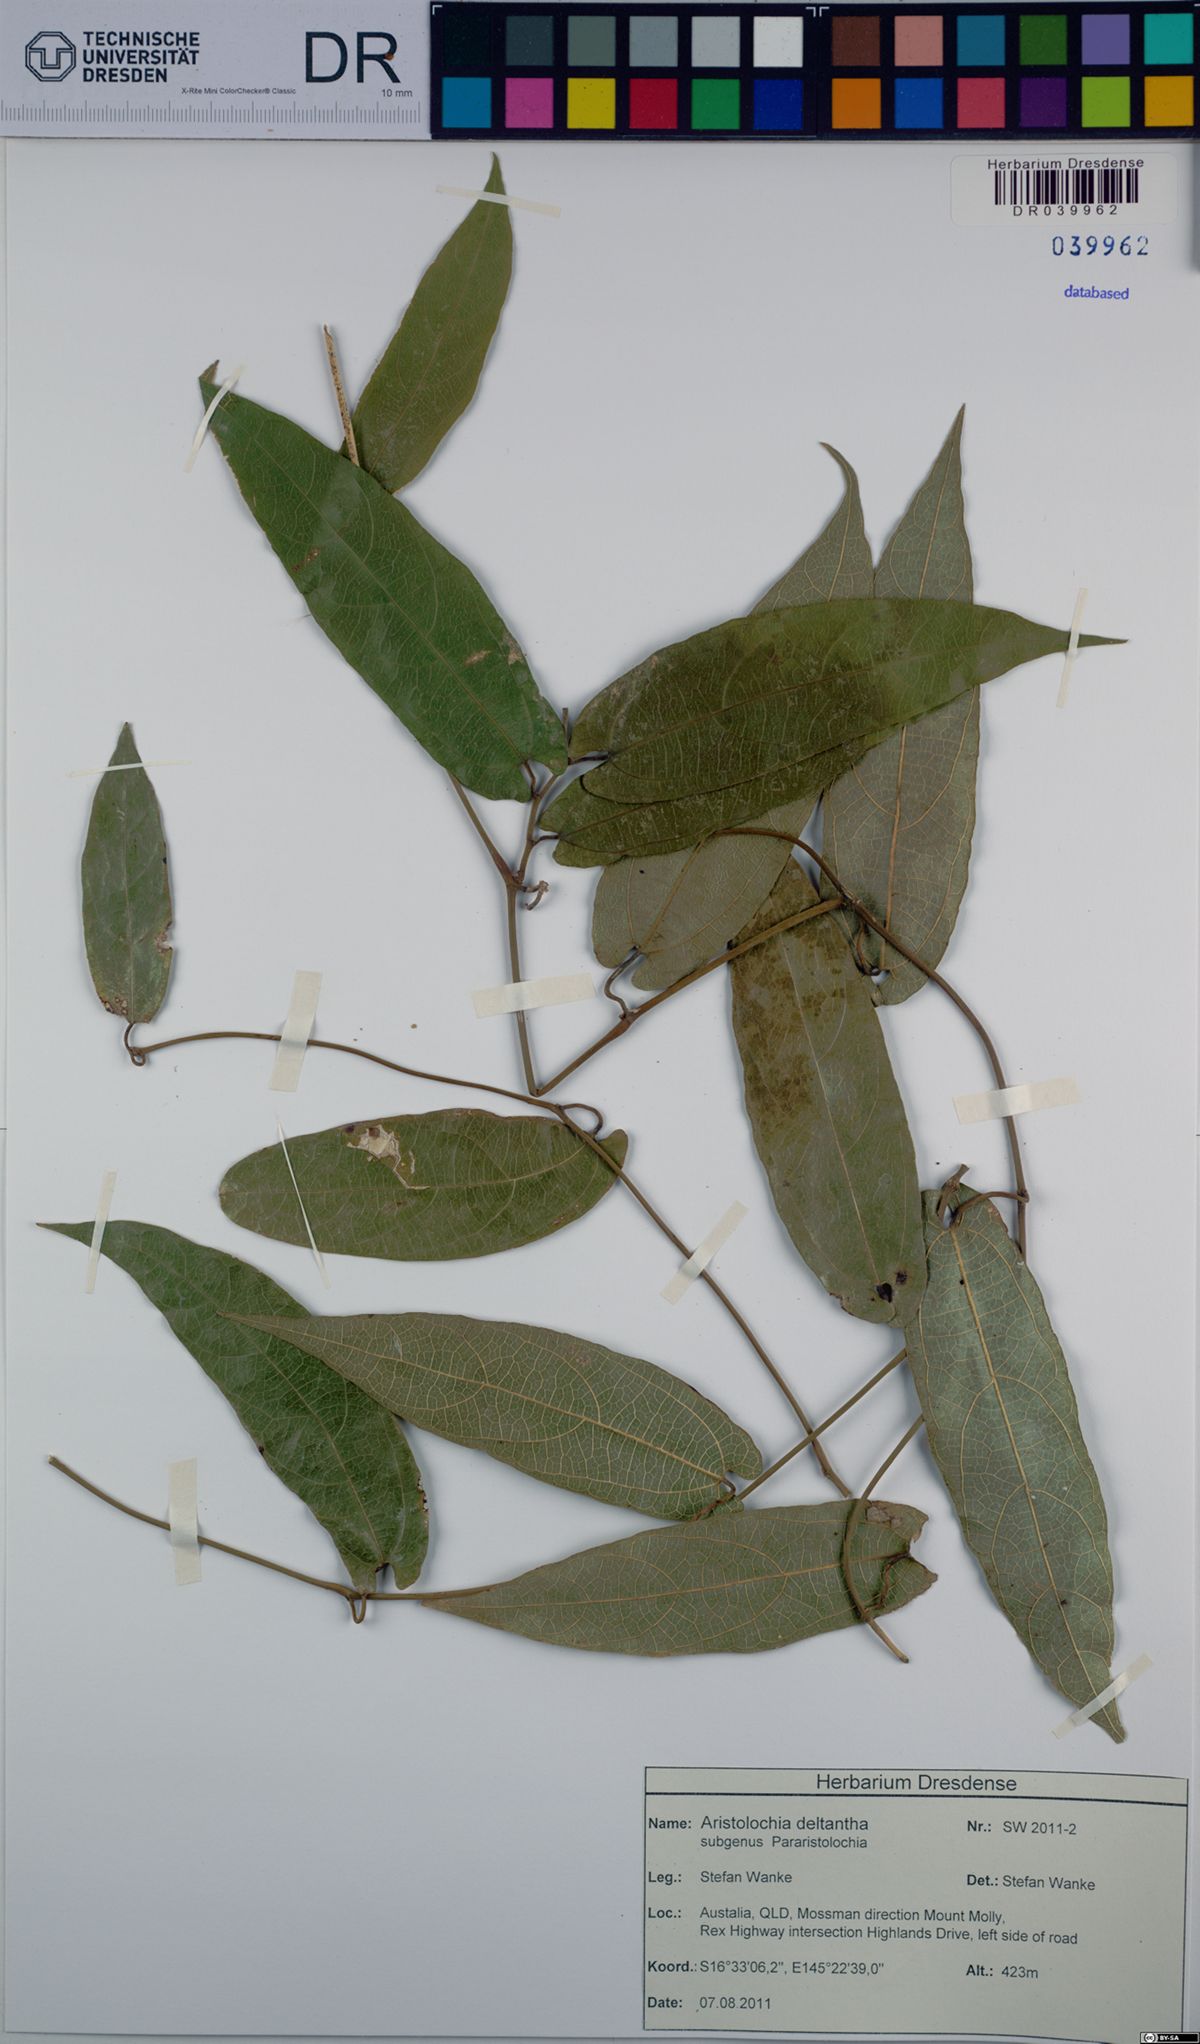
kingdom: Plantae
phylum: Tracheophyta
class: Magnoliopsida
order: Piperales
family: Aristolochiaceae
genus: Aristolochia
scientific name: Aristolochia deltantha
